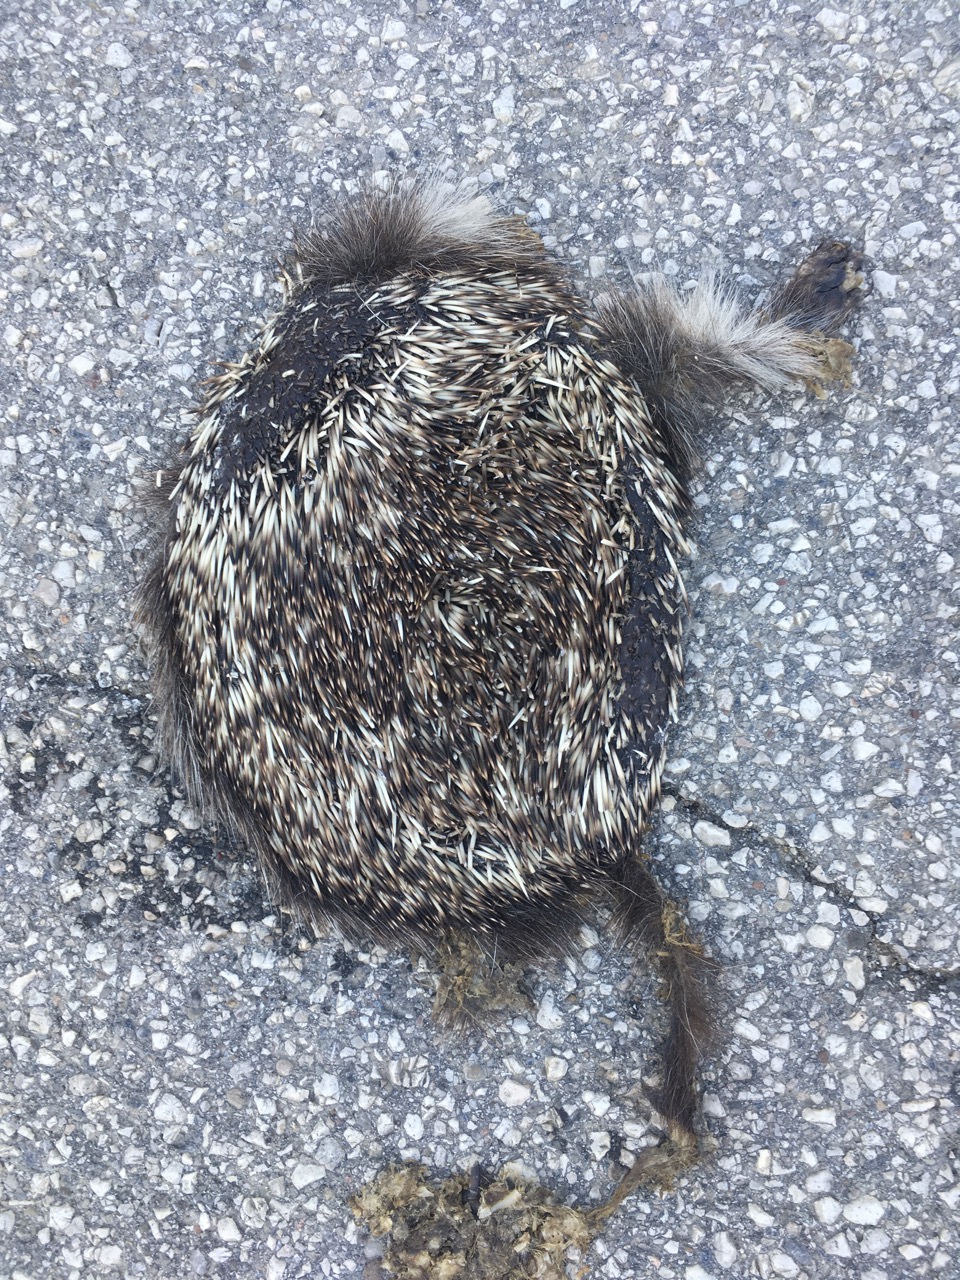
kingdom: Animalia
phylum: Chordata
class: Mammalia
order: Erinaceomorpha
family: Erinaceidae
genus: Erinaceus
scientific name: Erinaceus
